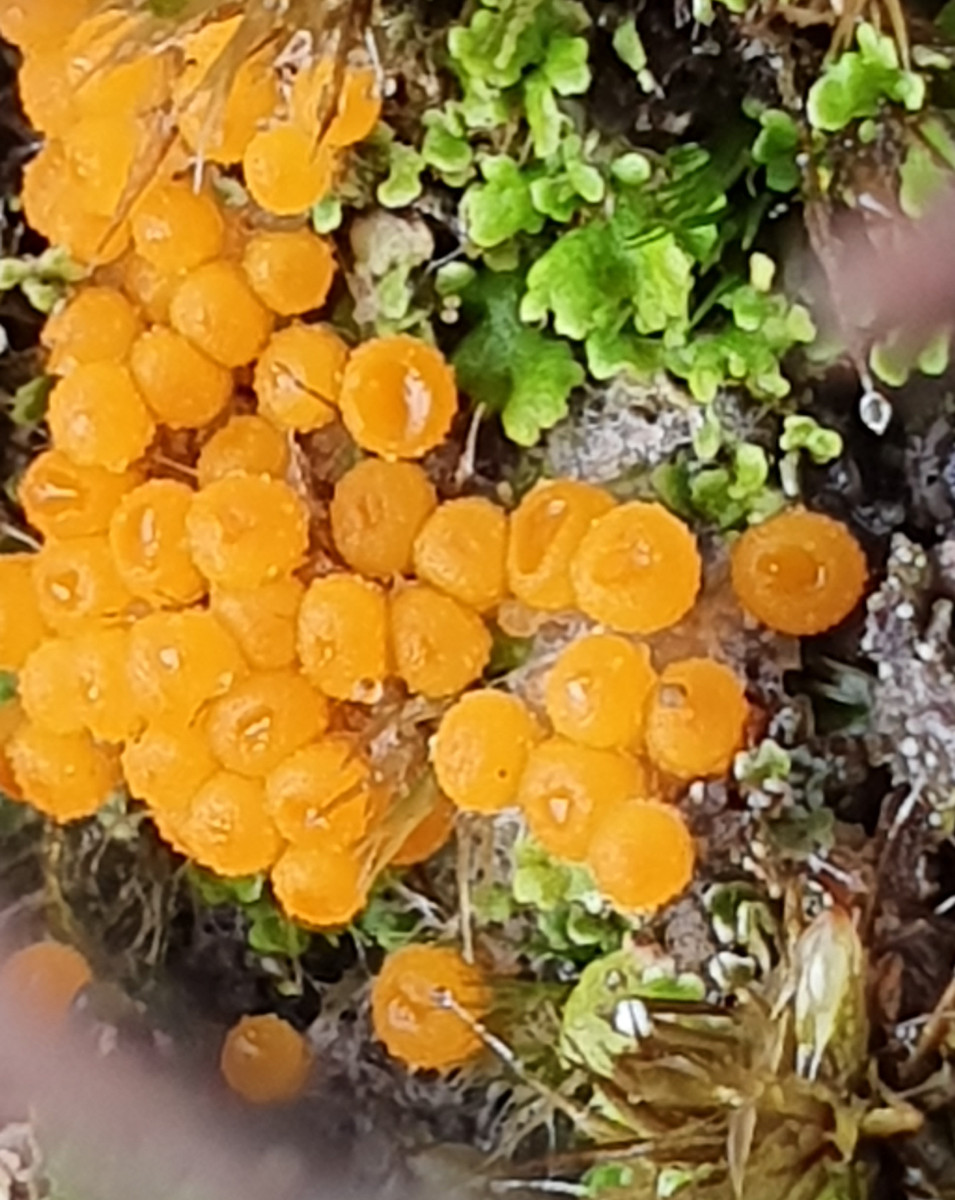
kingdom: Fungi
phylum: Ascomycota
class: Pezizomycetes
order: Pezizales
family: Pyronemataceae
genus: Byssonectria
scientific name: Byssonectria terrestris
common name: hjortebæger
